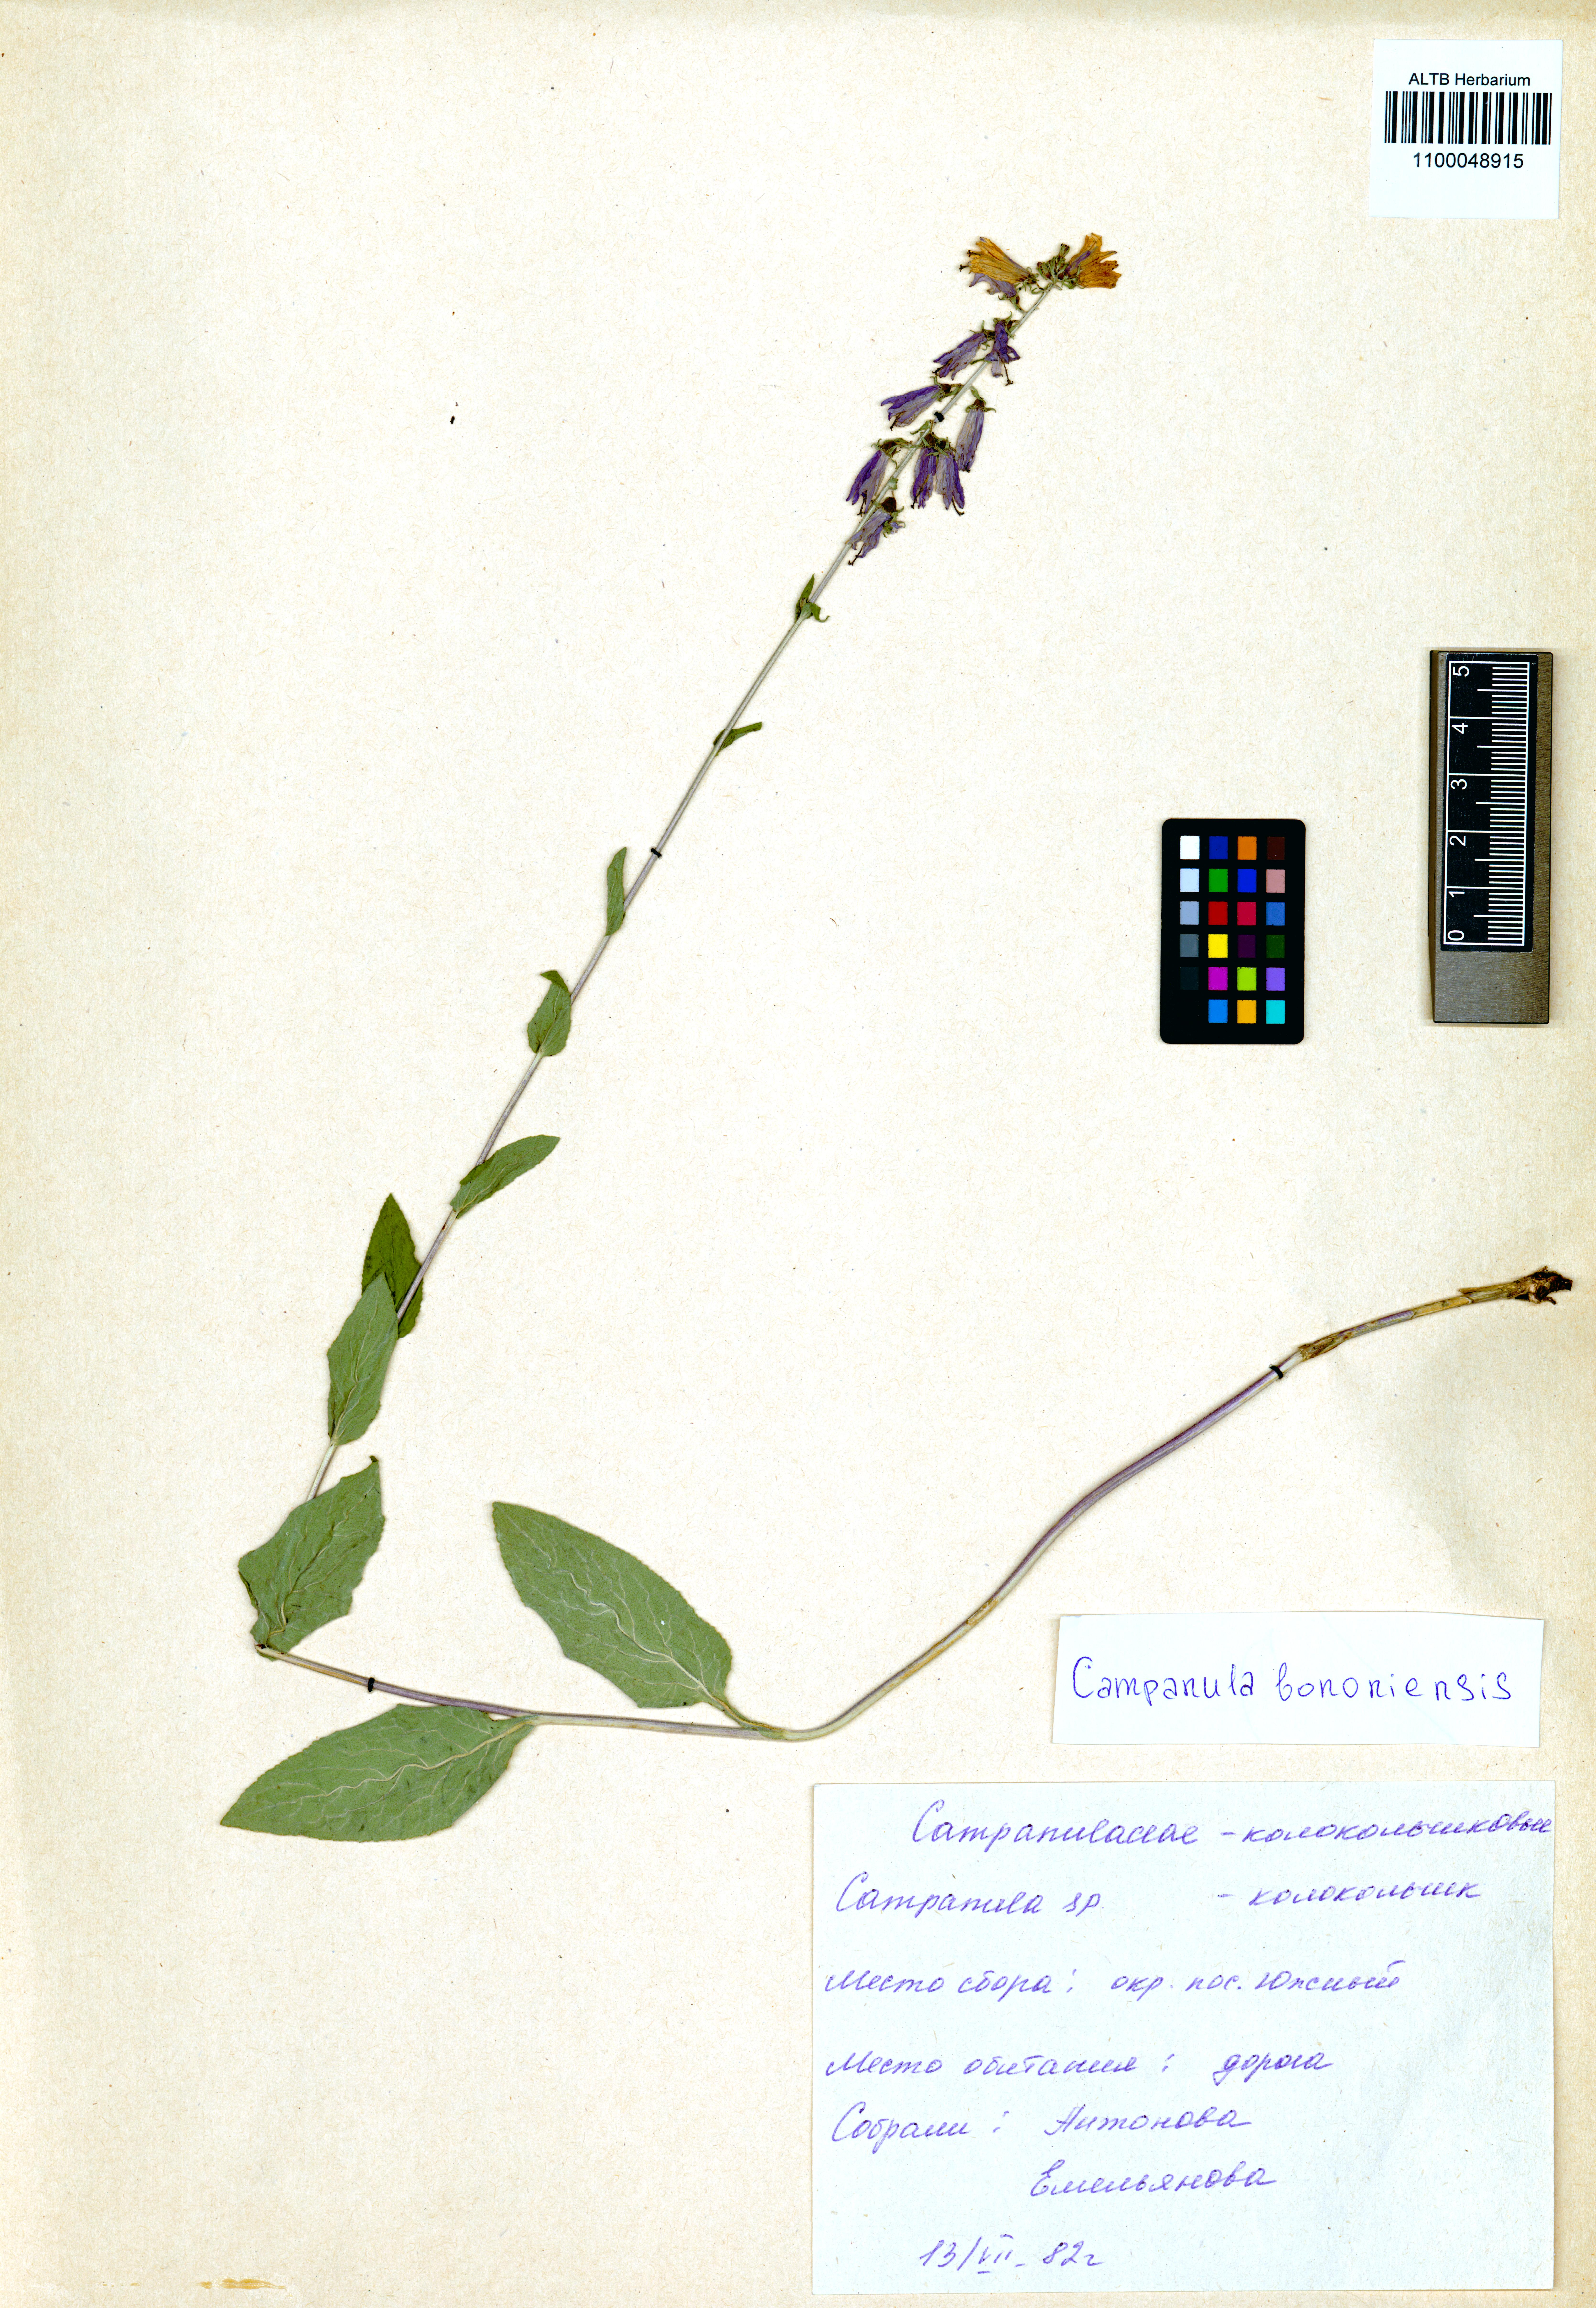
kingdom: Plantae
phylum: Tracheophyta
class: Magnoliopsida
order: Asterales
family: Campanulaceae
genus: Campanula
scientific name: Campanula bononiensis
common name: Pale bellflower
